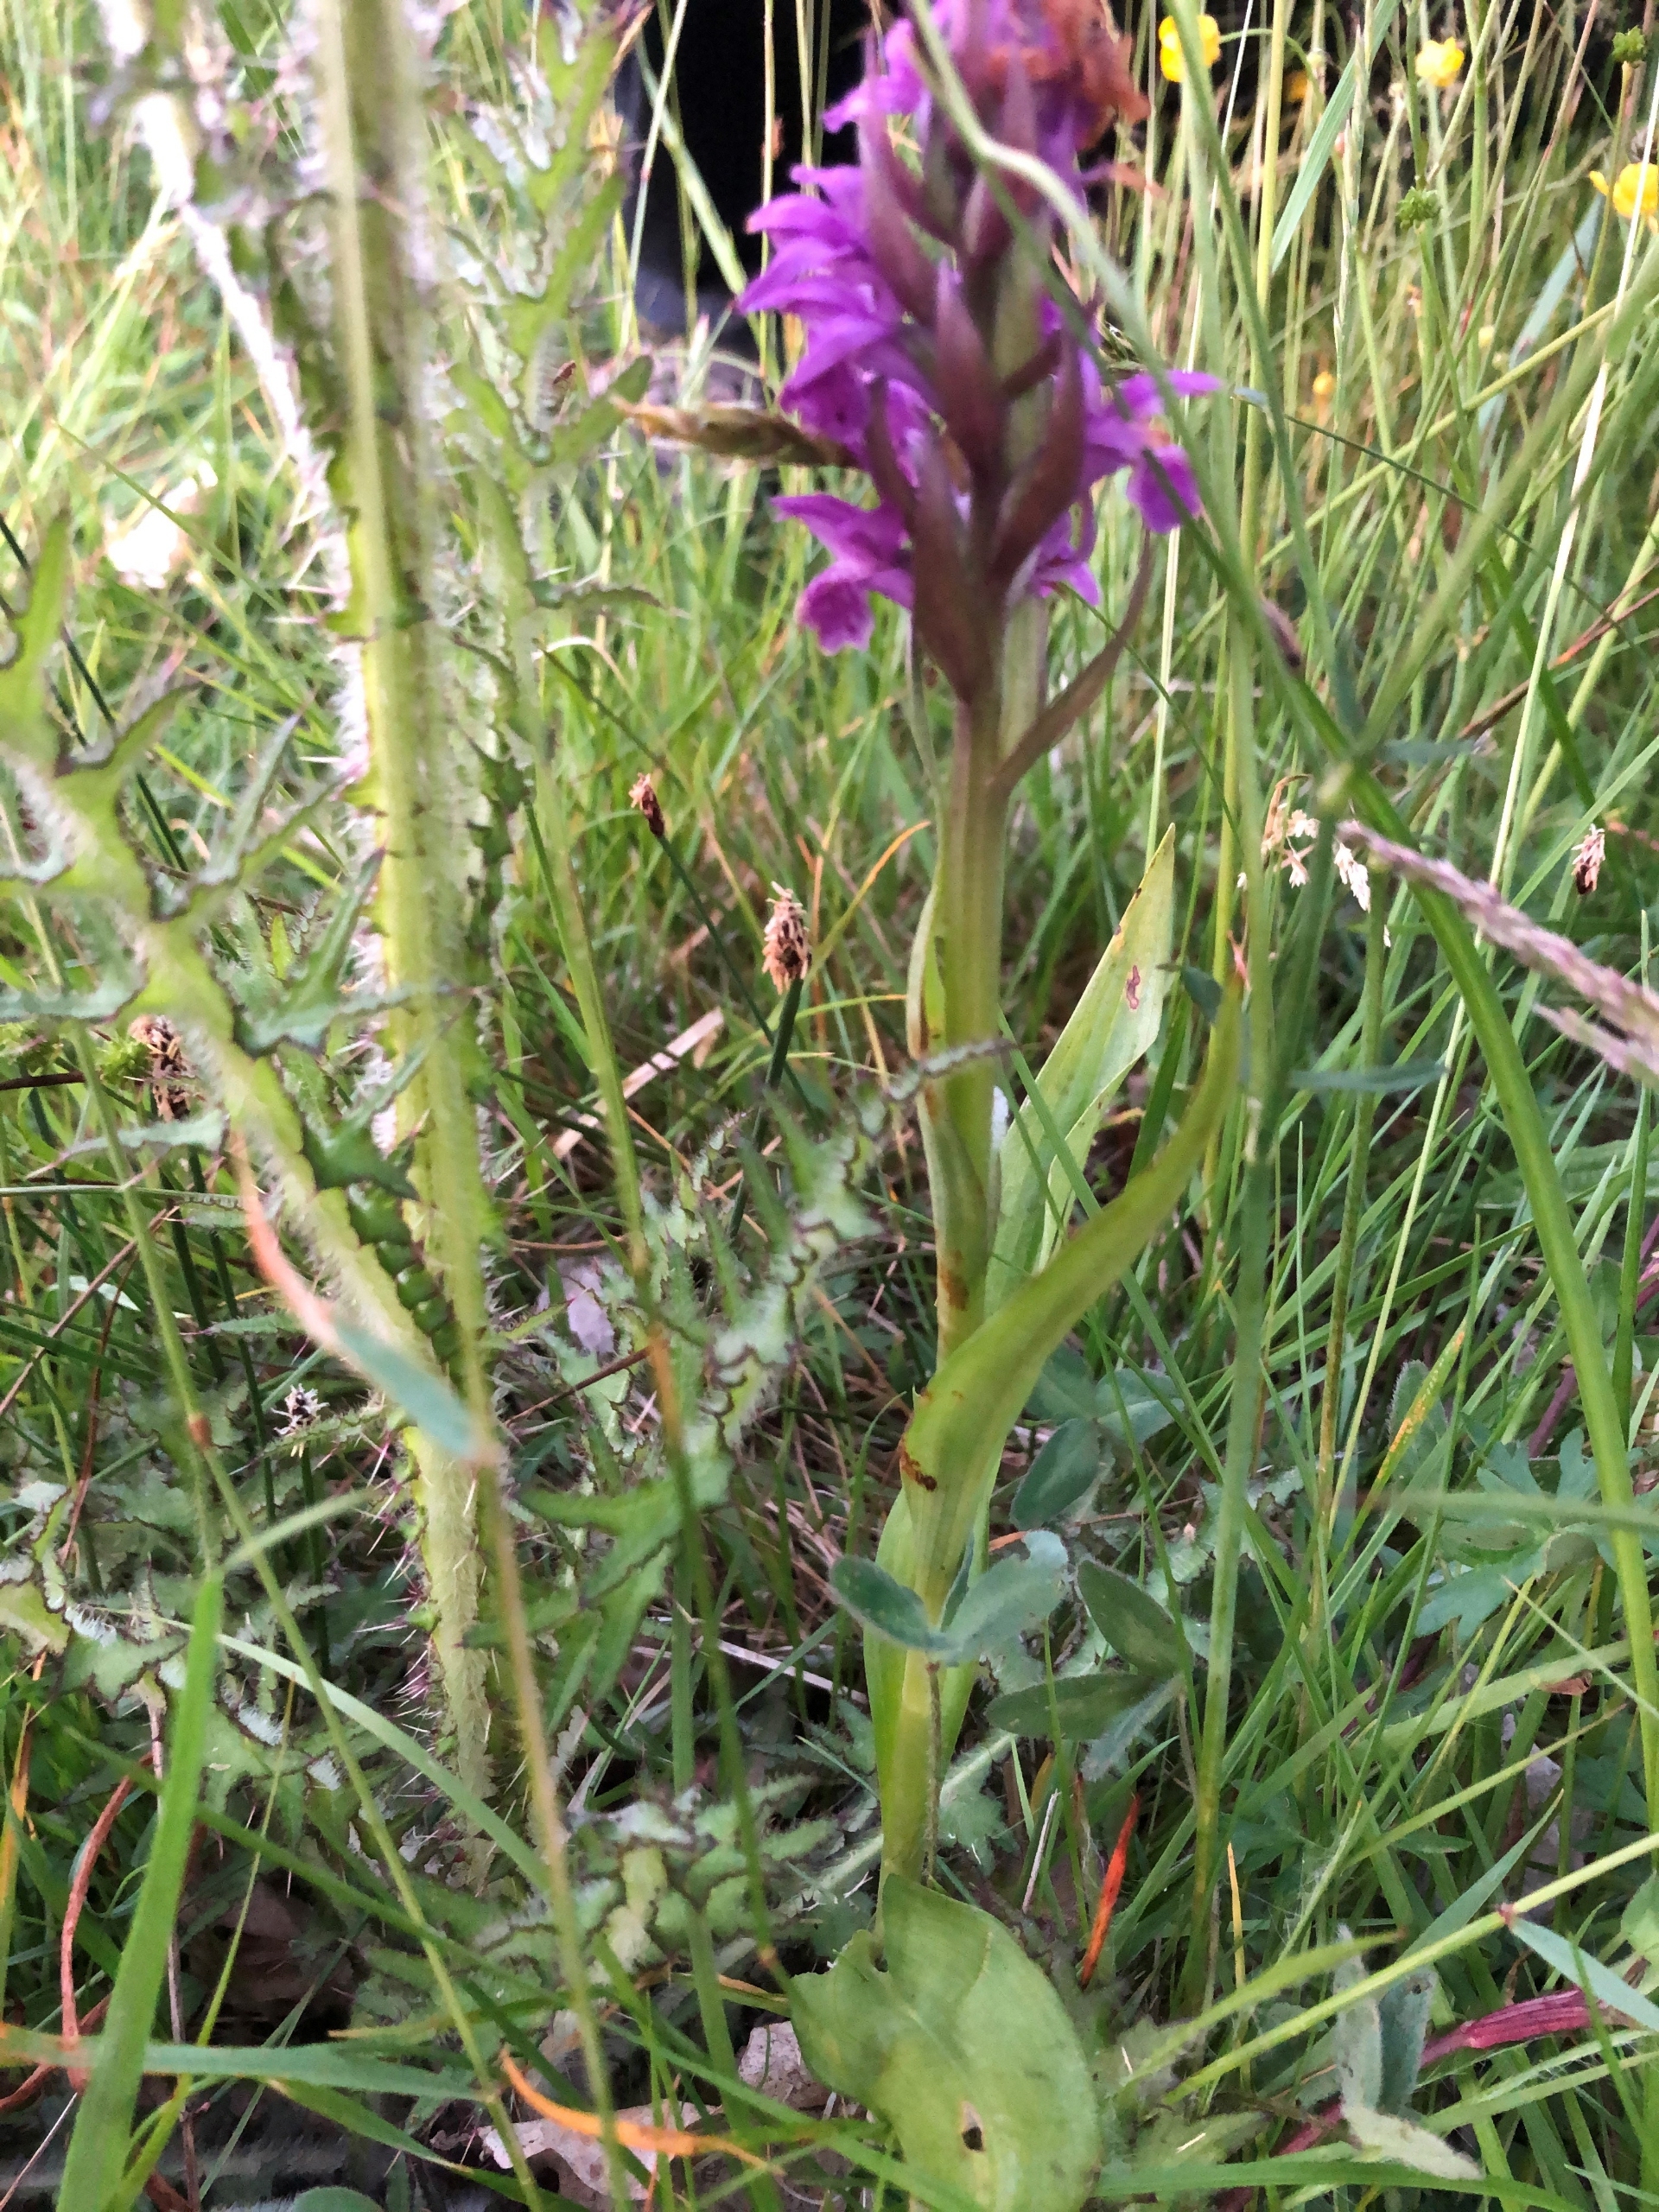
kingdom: Plantae
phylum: Tracheophyta
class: Liliopsida
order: Asparagales
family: Orchidaceae
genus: Dactylorhiza
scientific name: Dactylorhiza majalis
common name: Maj-gøgeurt
